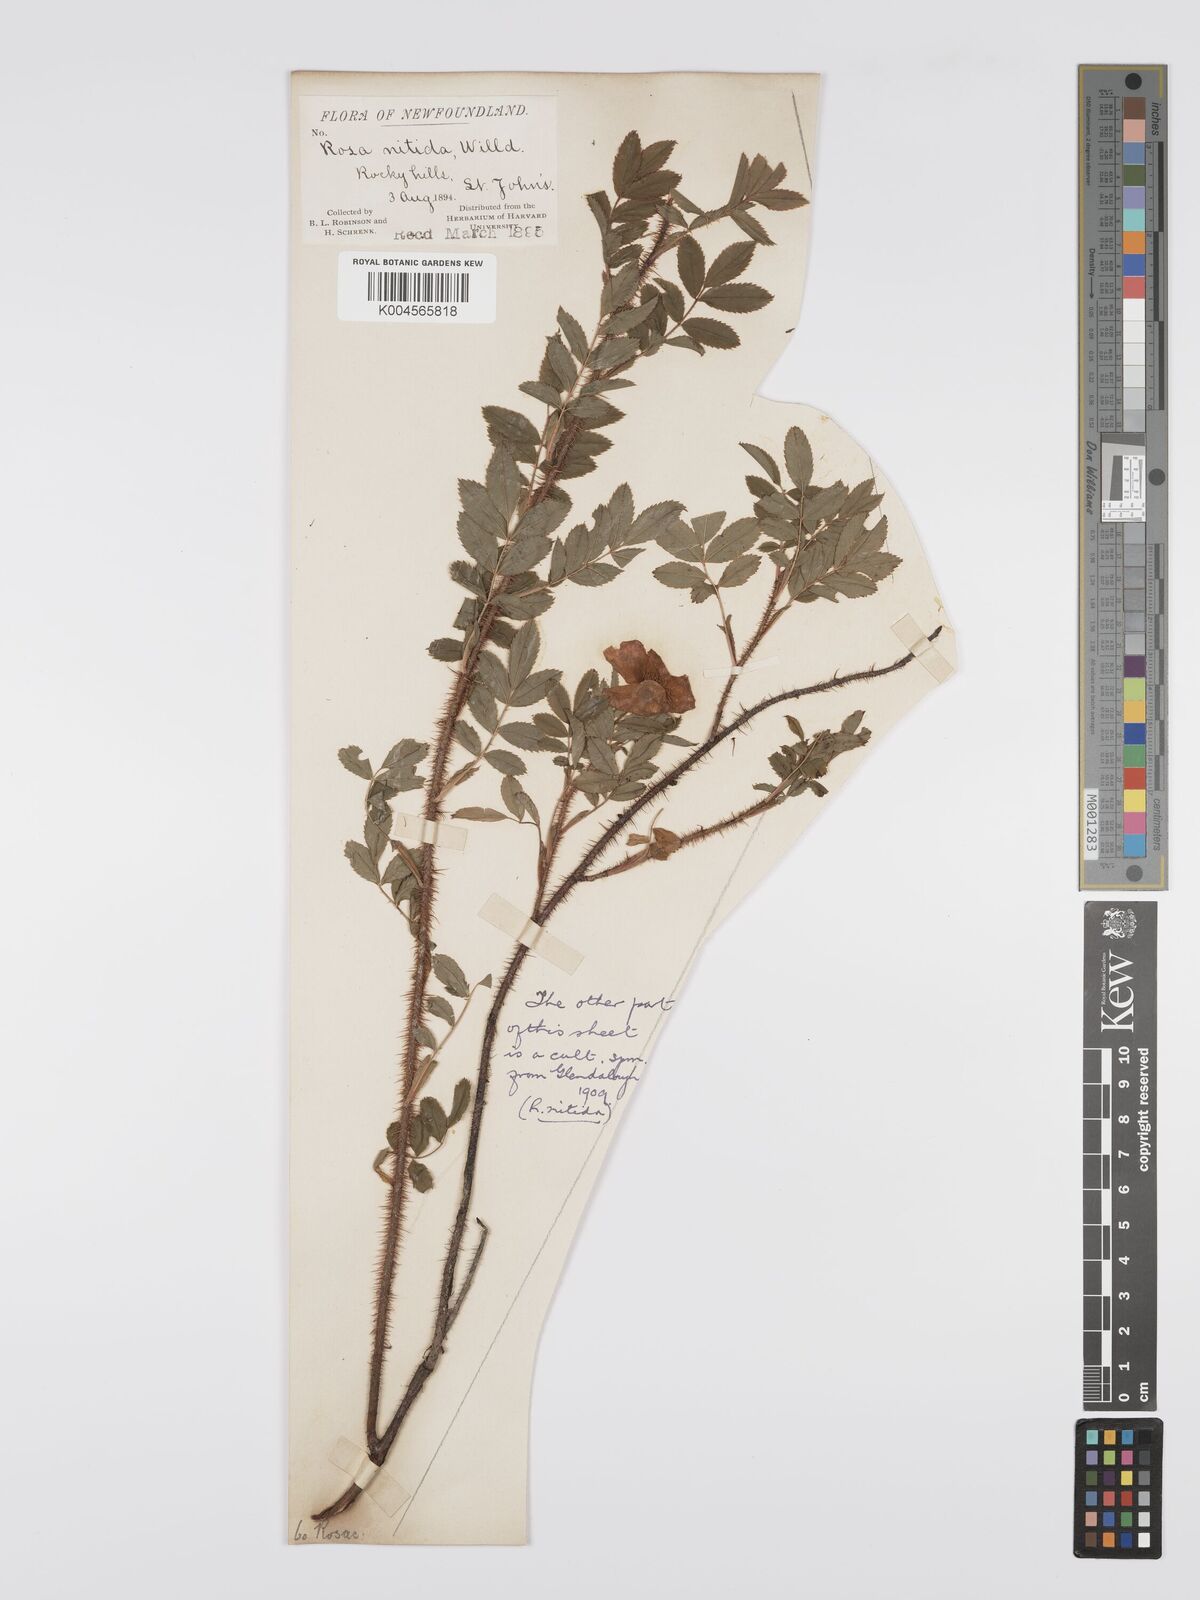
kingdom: Plantae
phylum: Tracheophyta
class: Magnoliopsida
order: Rosales
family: Rosaceae
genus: Rosa
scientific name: Rosa nitida
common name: New england rose
